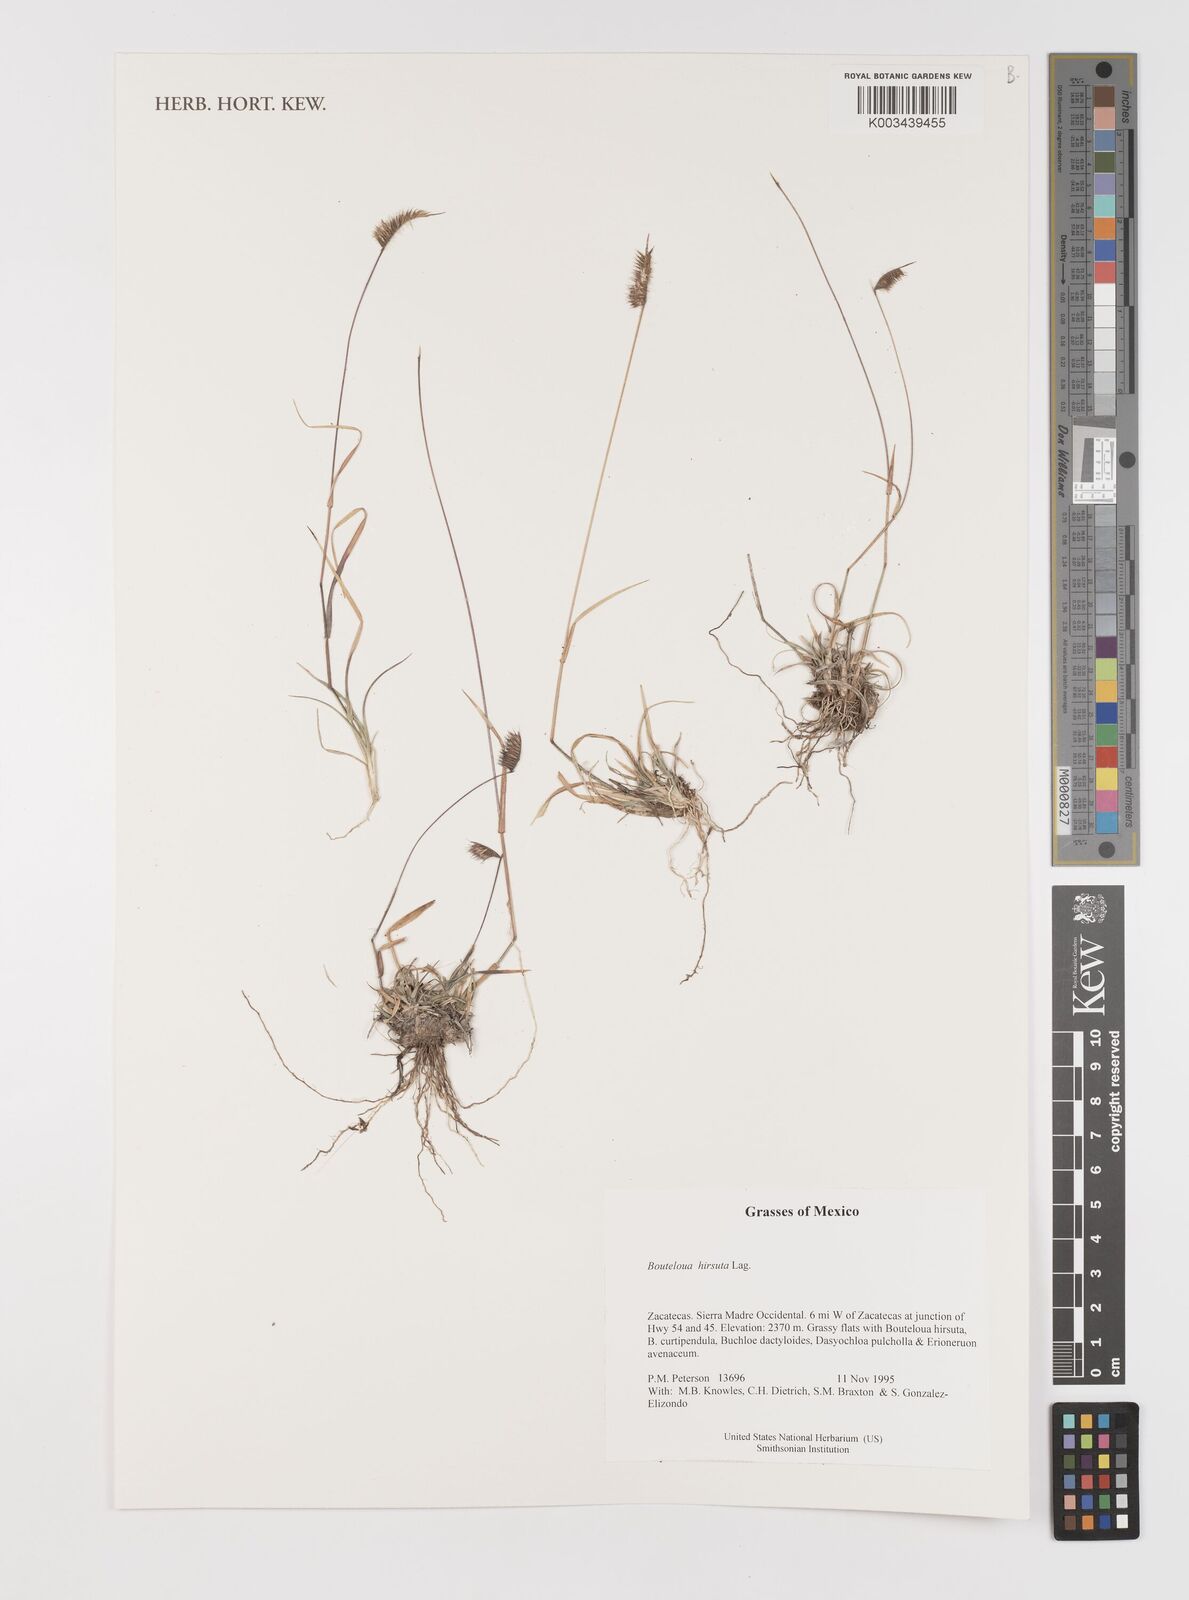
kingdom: Plantae
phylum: Tracheophyta
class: Liliopsida
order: Poales
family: Poaceae
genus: Bouteloua
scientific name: Bouteloua hirsuta
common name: Hairy grama
